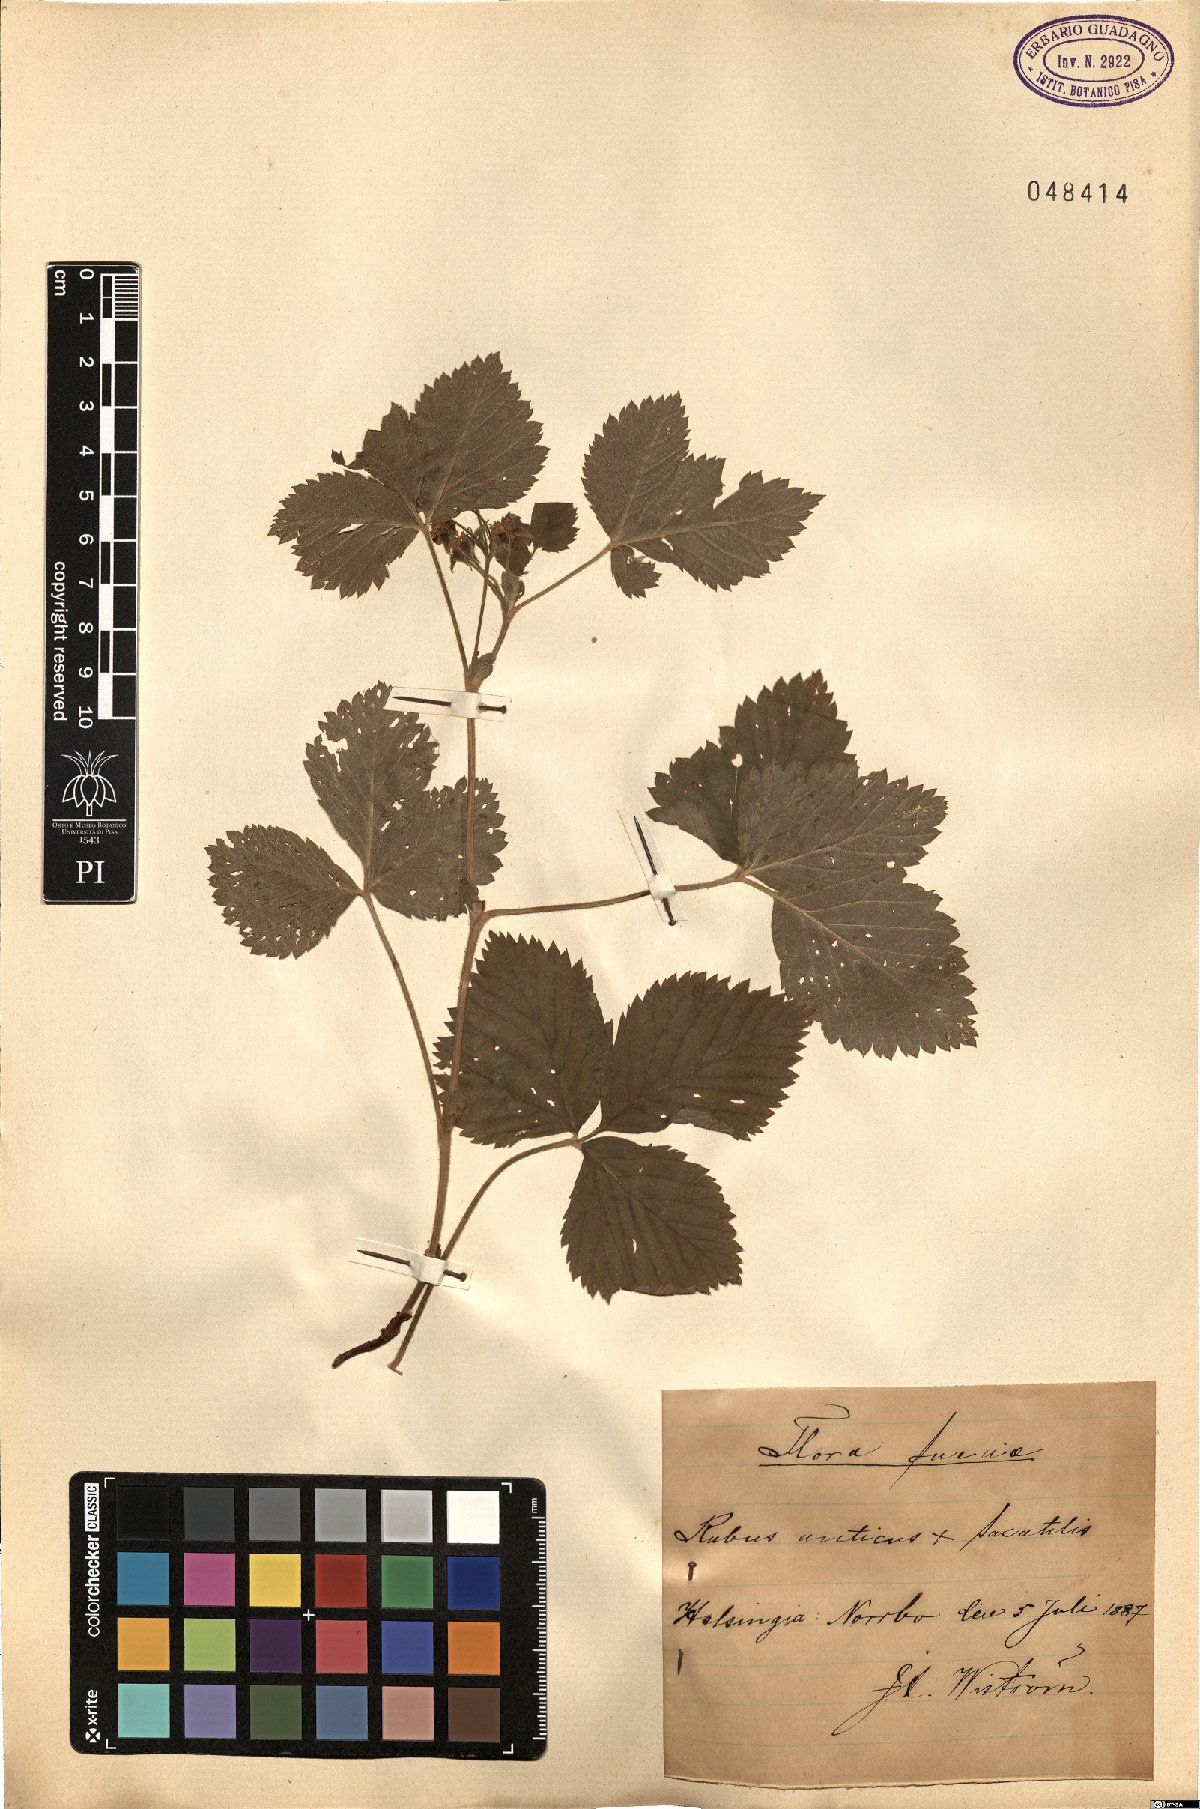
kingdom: Plantae
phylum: Tracheophyta
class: Magnoliopsida
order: Rosales
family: Rosaceae
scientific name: Rosaceae
